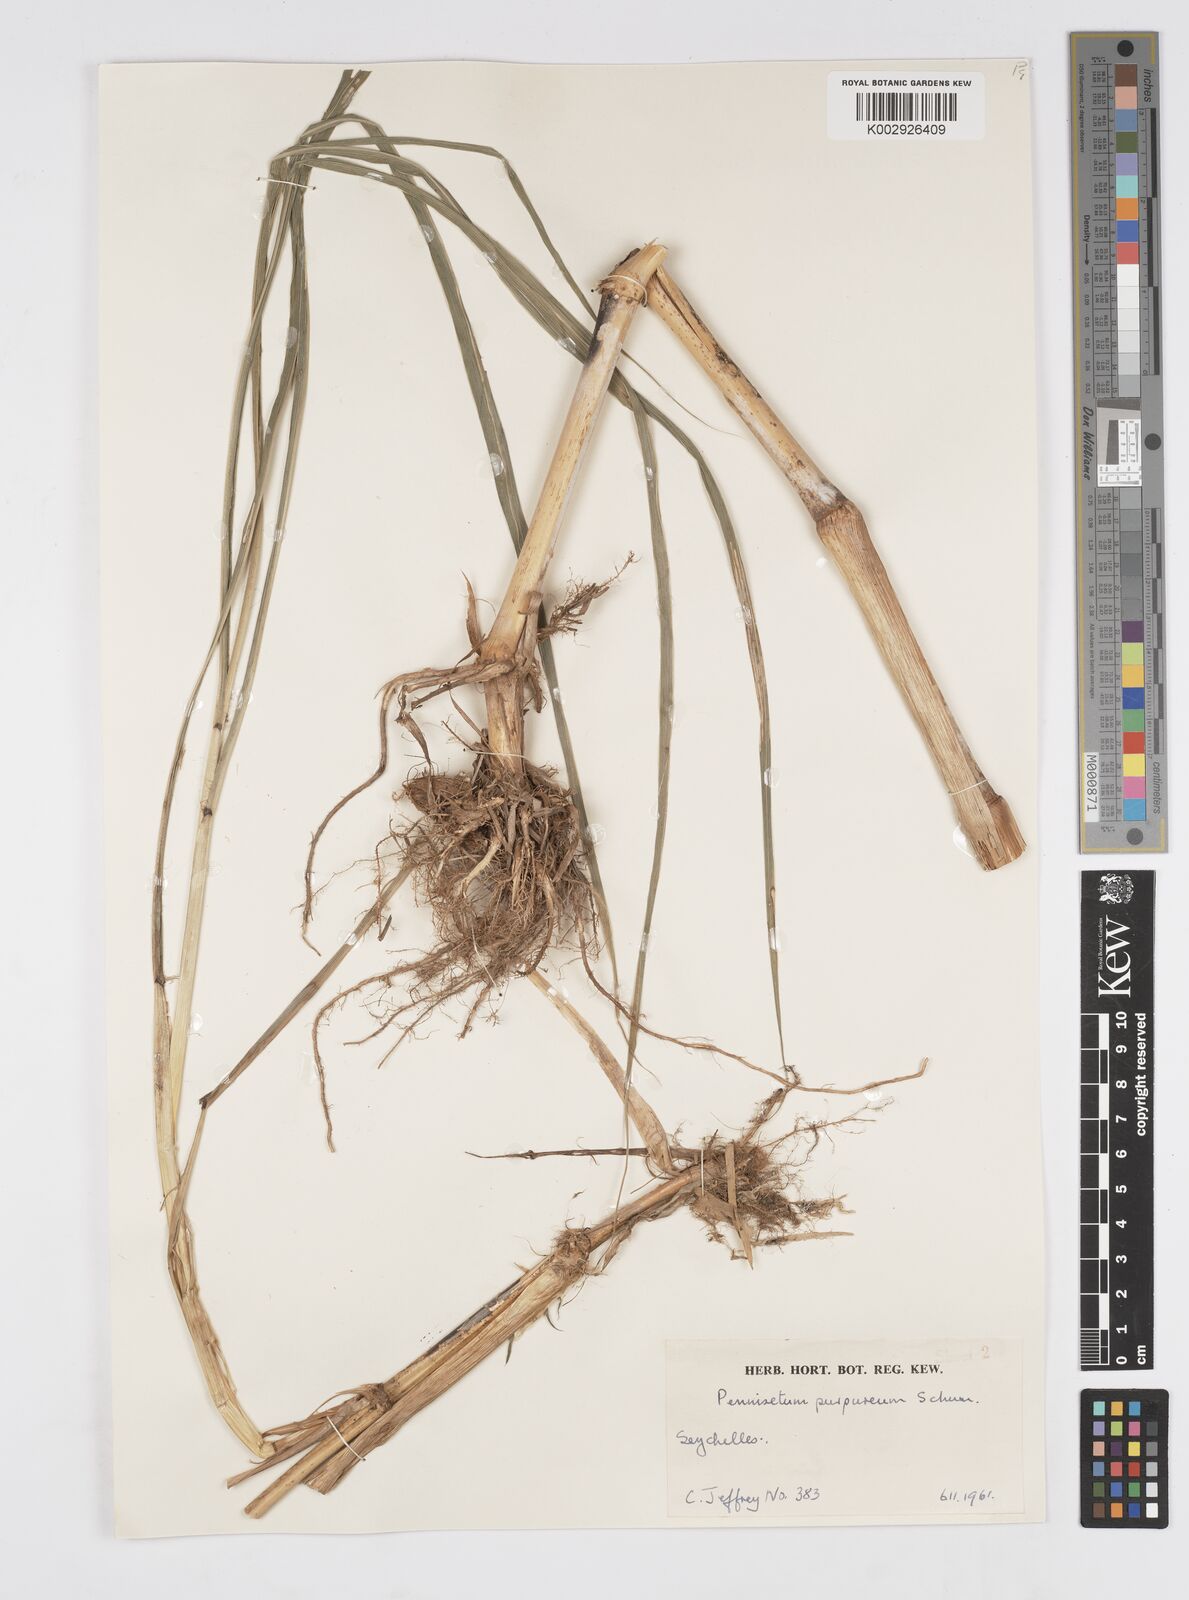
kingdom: Plantae
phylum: Tracheophyta
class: Liliopsida
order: Poales
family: Poaceae
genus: Cenchrus
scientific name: Cenchrus purpureus
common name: Elephant grass
